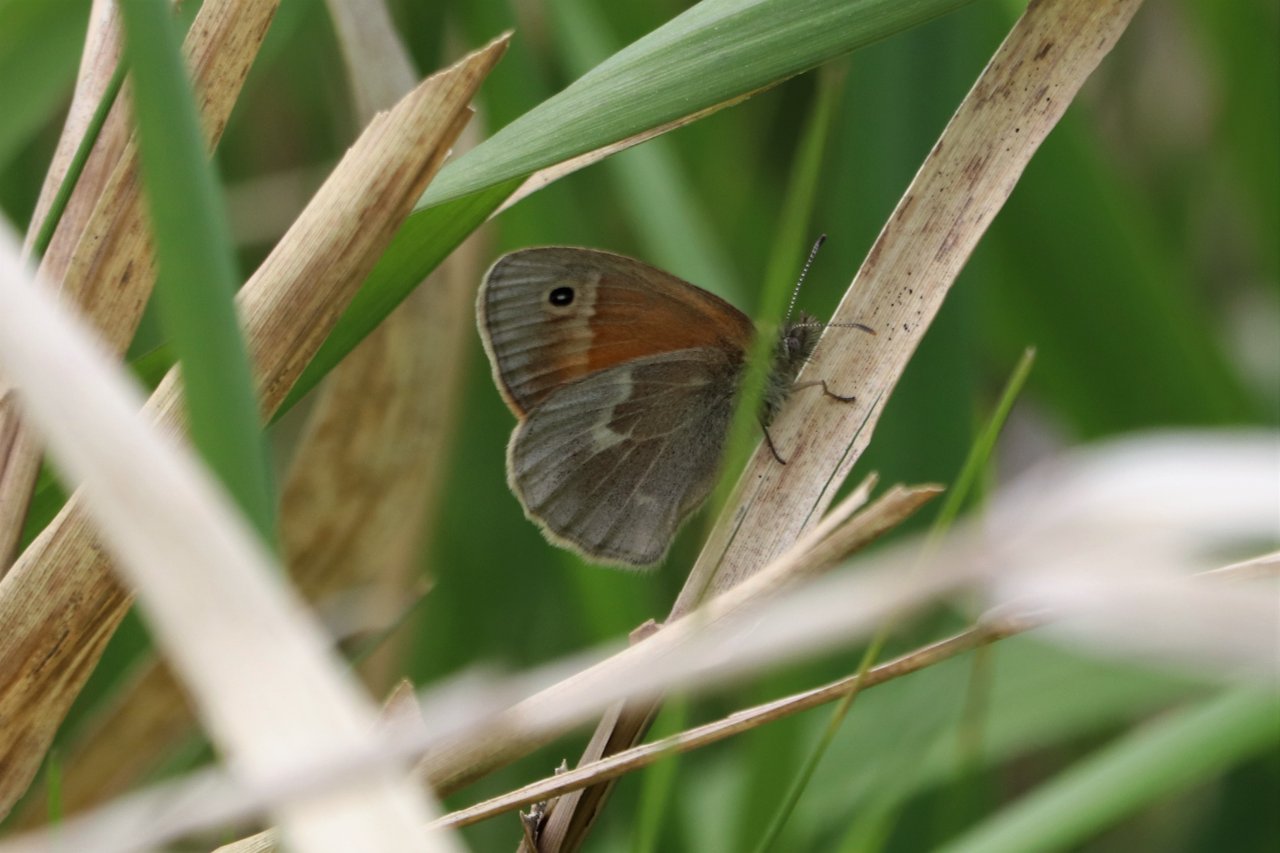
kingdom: Animalia
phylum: Arthropoda
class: Insecta
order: Lepidoptera
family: Nymphalidae
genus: Coenonympha
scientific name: Coenonympha tullia
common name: Large Heath
